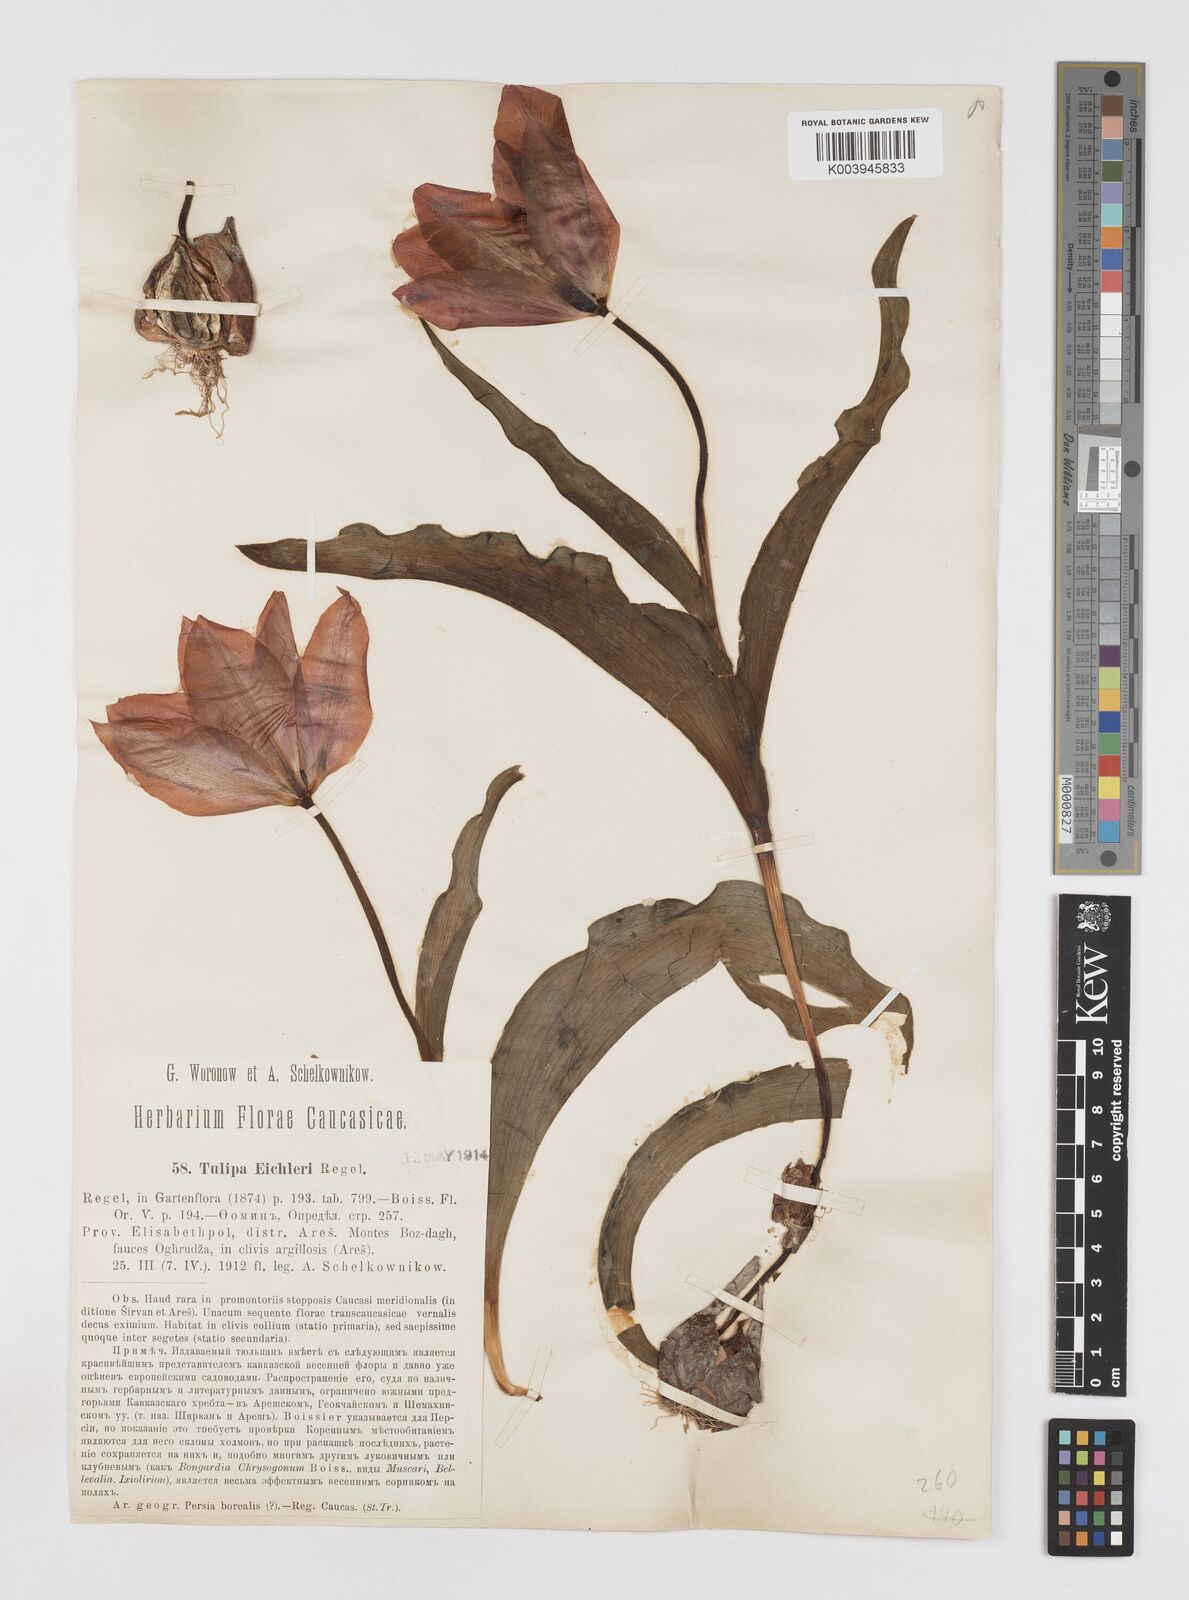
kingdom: Plantae
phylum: Tracheophyta
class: Liliopsida
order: Liliales
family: Liliaceae
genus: Tulipa
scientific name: Tulipa undulatifolia
